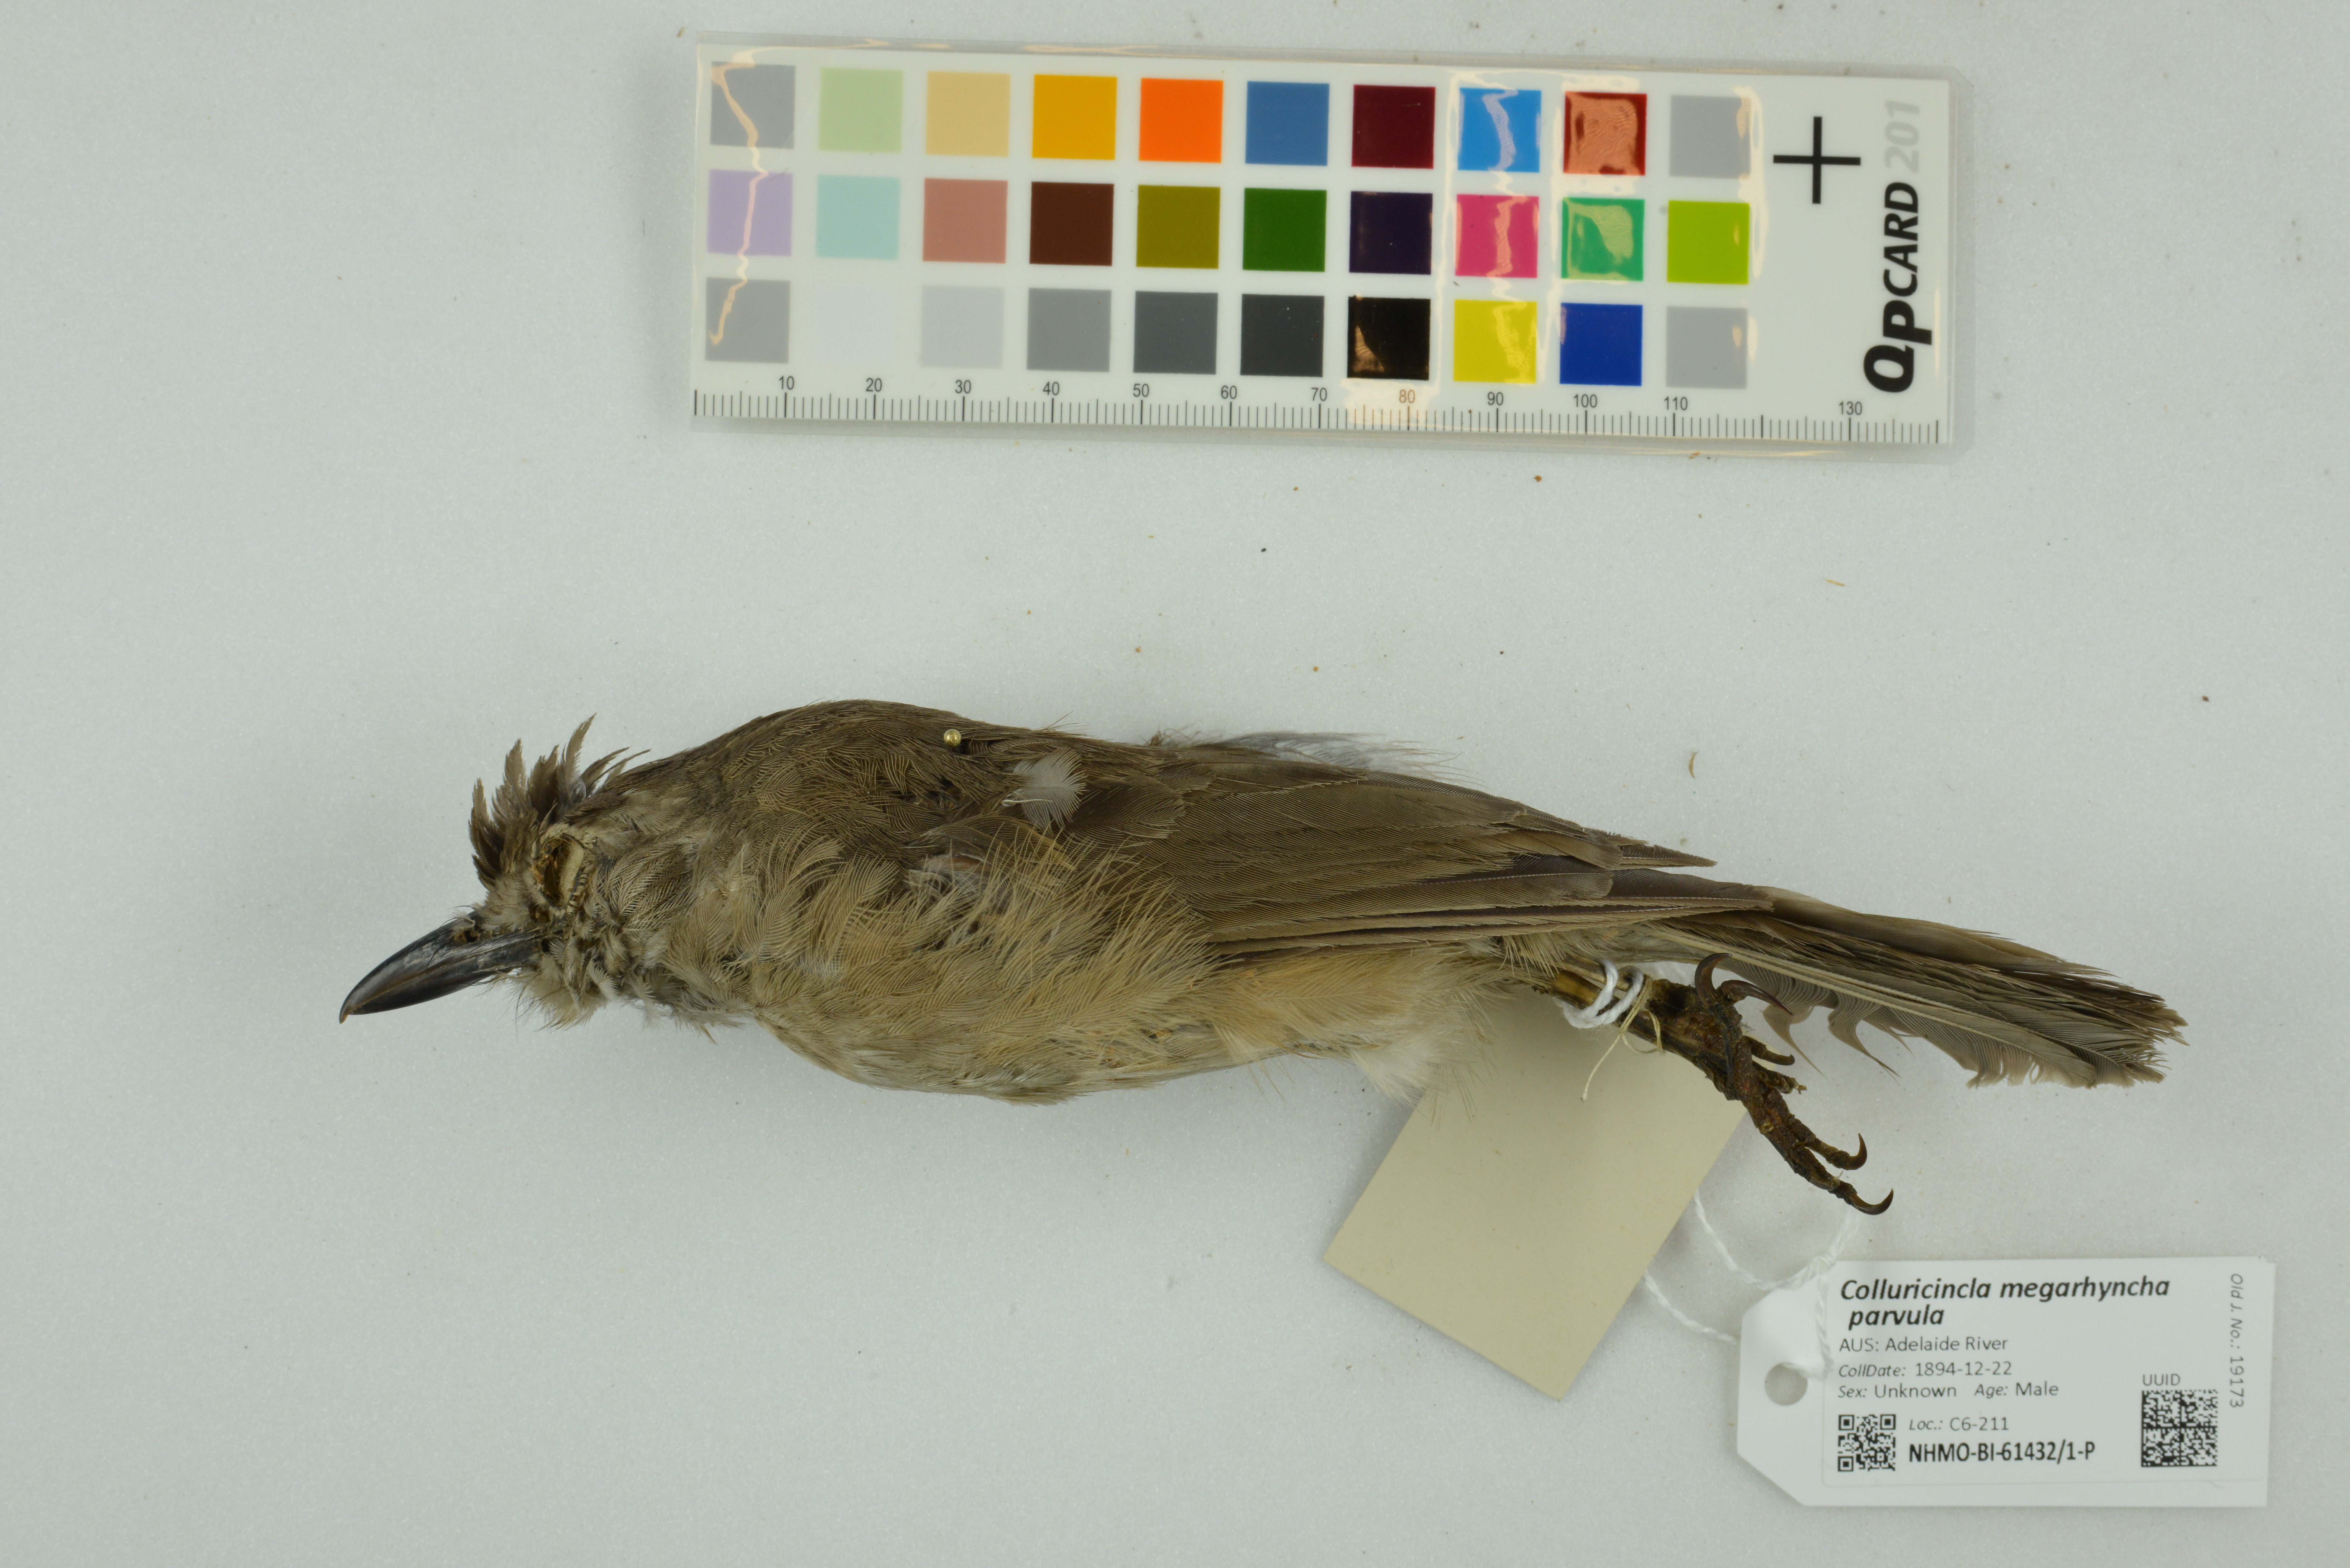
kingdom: Animalia
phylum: Chordata
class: Aves
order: Passeriformes
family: Pachycephalidae
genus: Colluricincla
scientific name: Colluricincla megarhyncha
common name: Little shrikethrush
